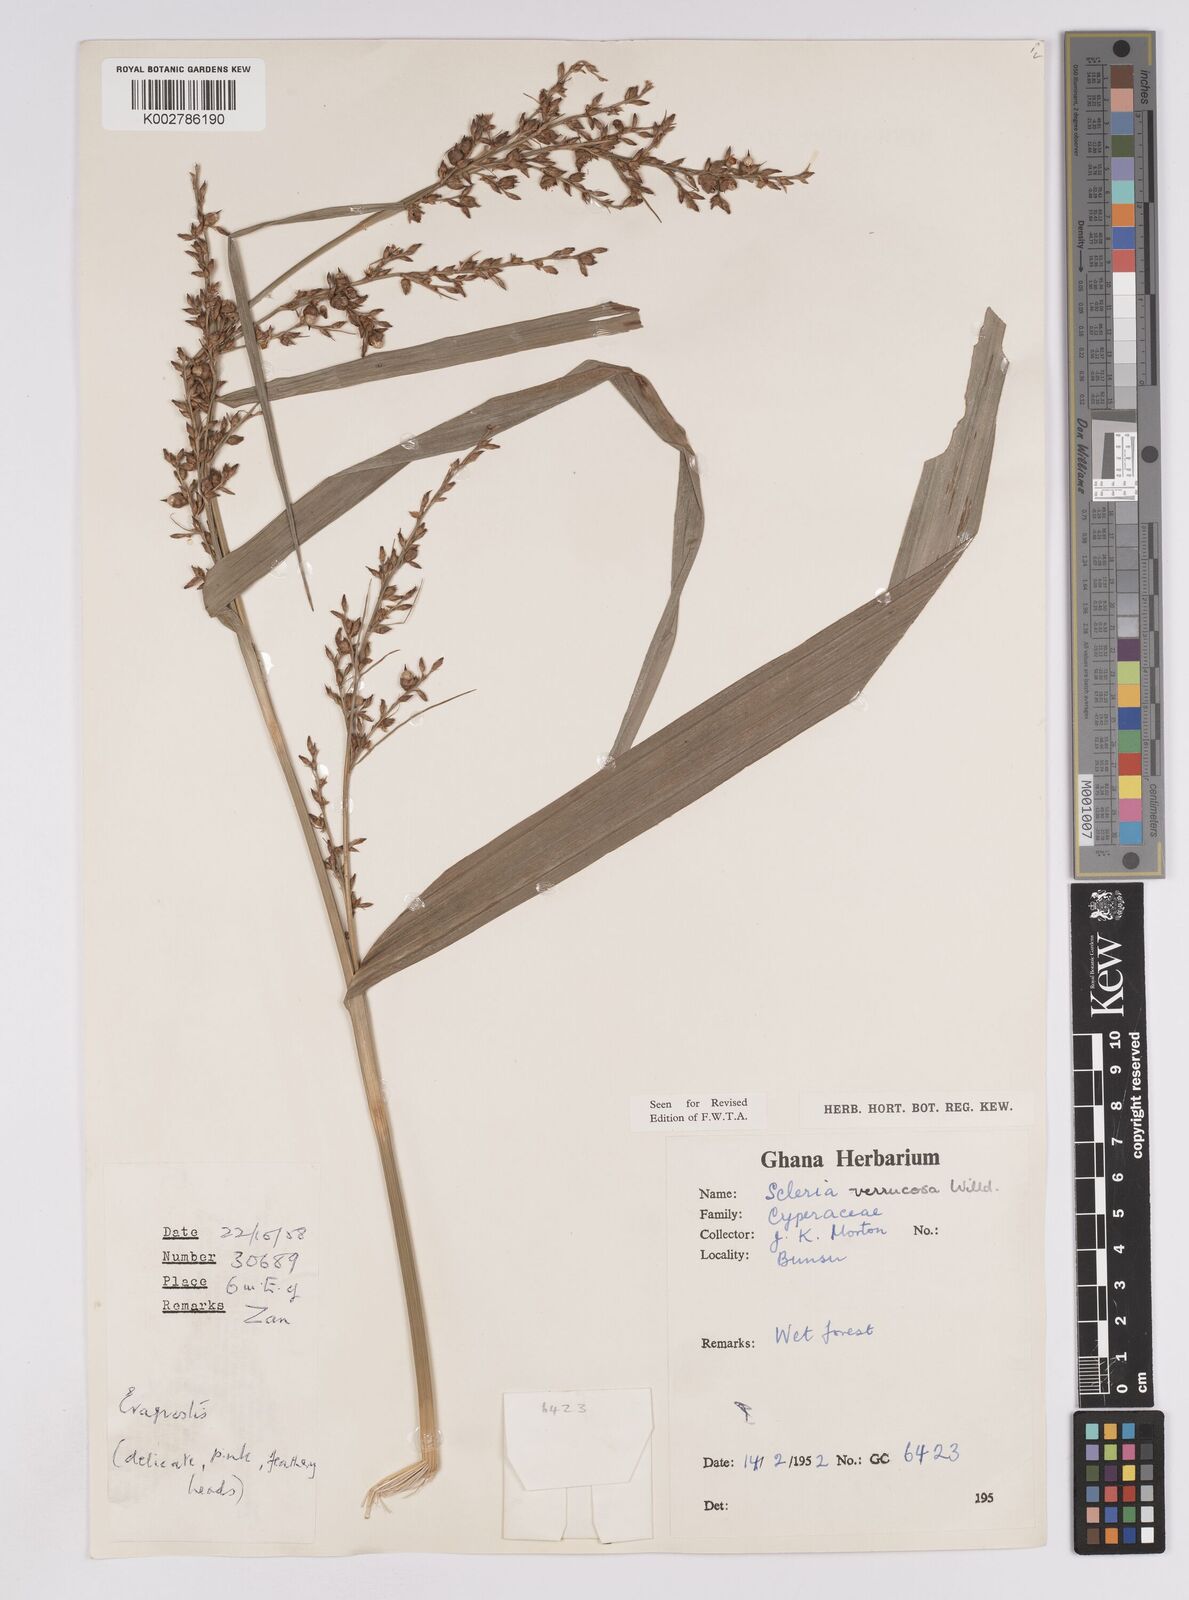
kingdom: Plantae
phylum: Tracheophyta
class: Liliopsida
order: Poales
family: Cyperaceae
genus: Scleria
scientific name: Scleria verrucosa
